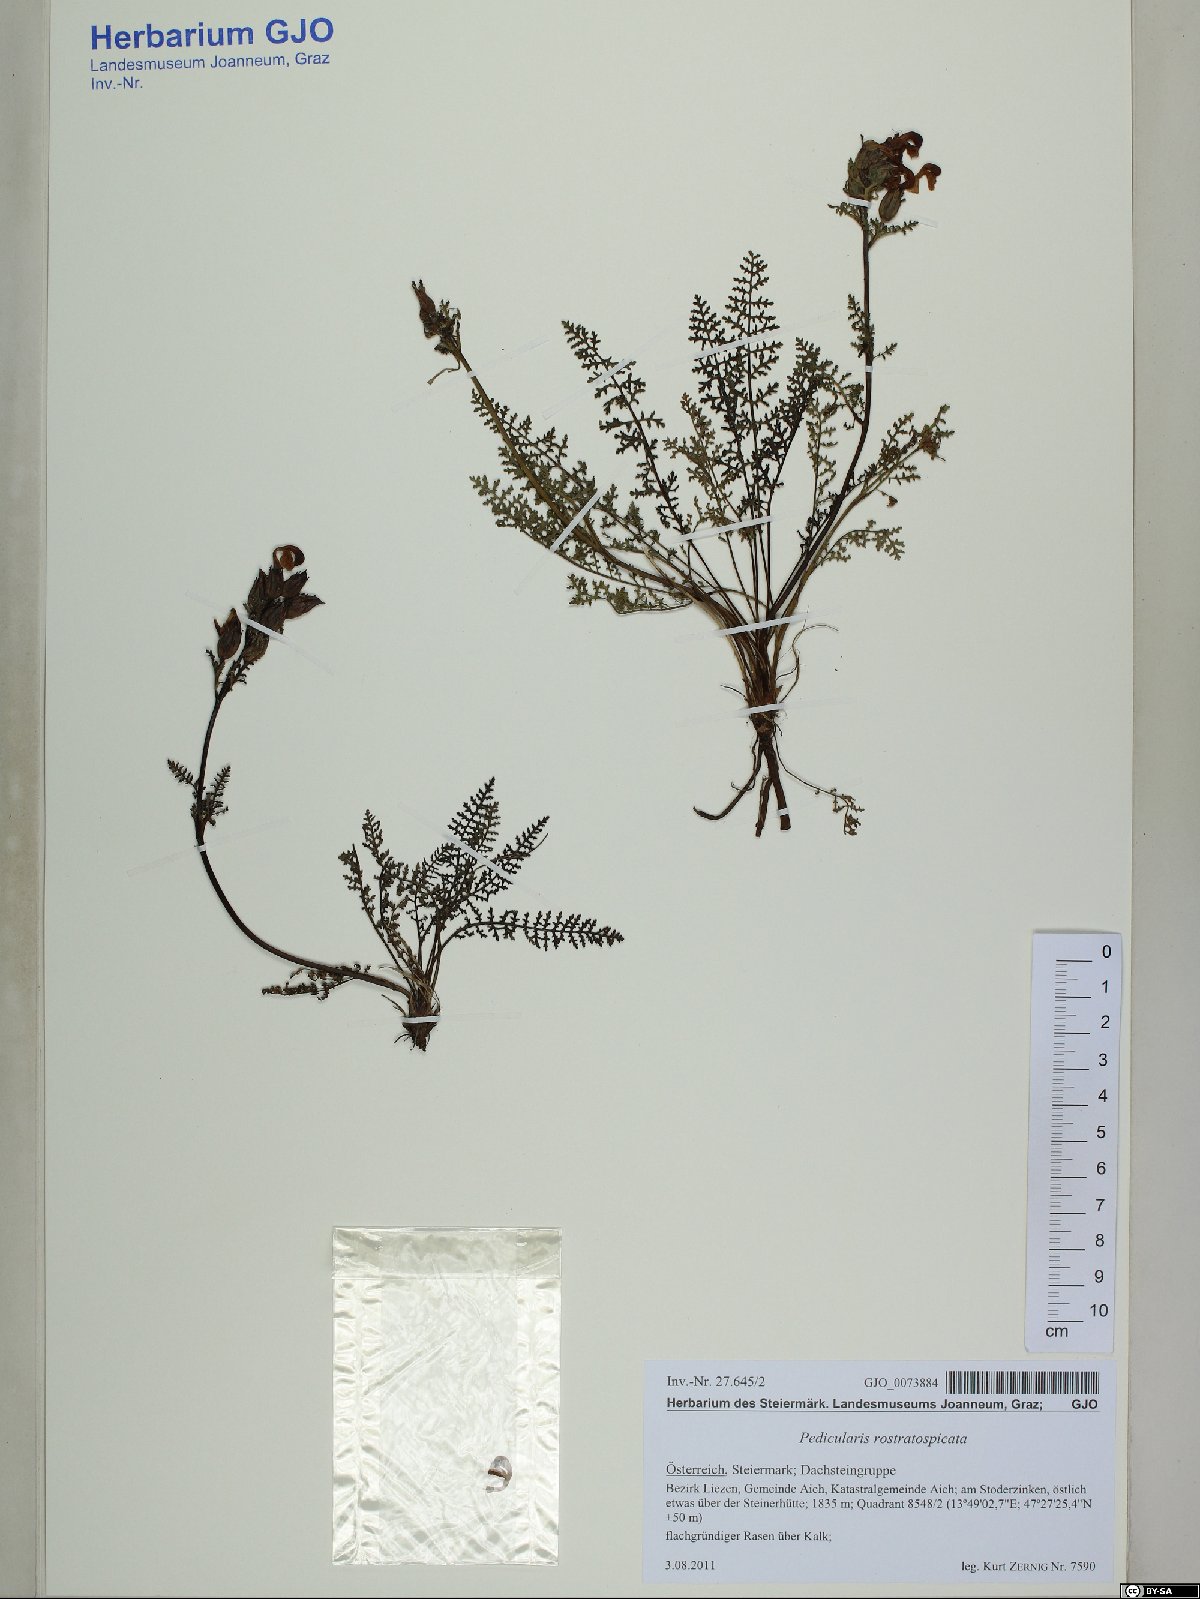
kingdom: Plantae
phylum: Tracheophyta
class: Magnoliopsida
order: Lamiales
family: Orobanchaceae
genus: Pedicularis
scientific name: Pedicularis rostratospicata
